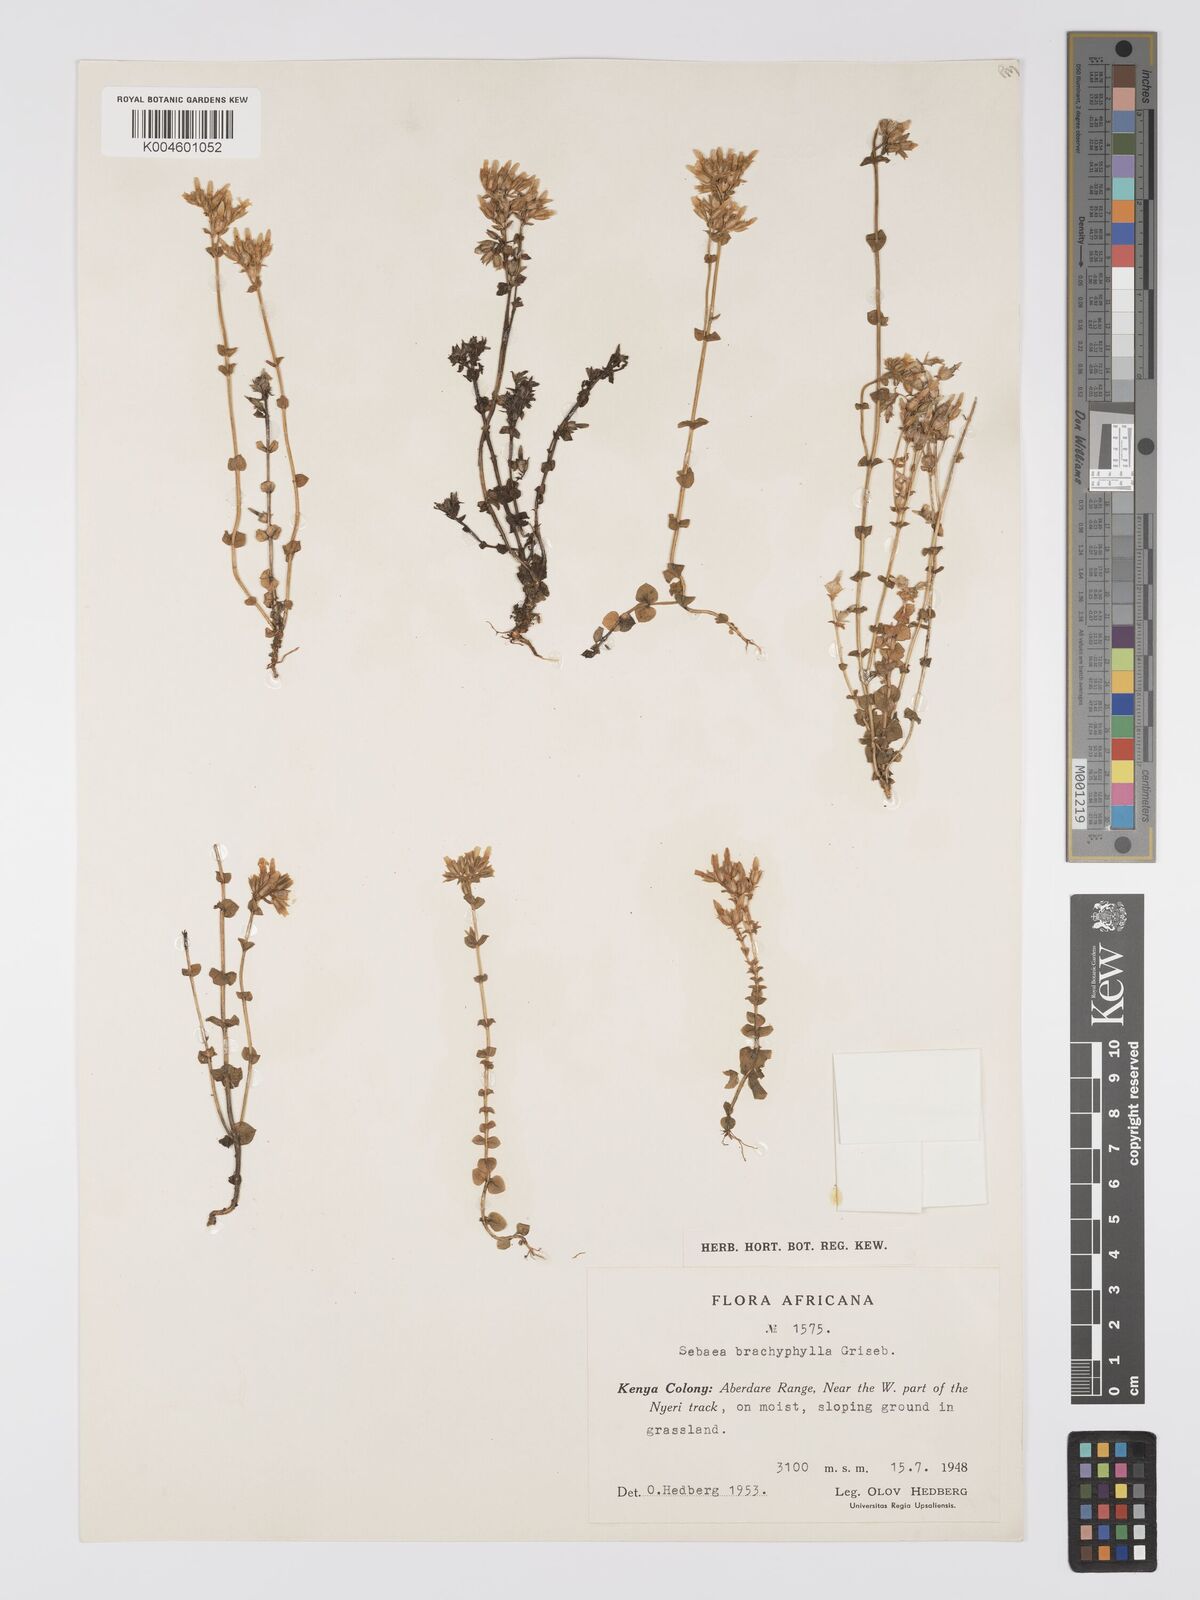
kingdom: Plantae
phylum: Tracheophyta
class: Magnoliopsida
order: Gentianales
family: Gentianaceae
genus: Sebaea
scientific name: Sebaea brachyphylla
